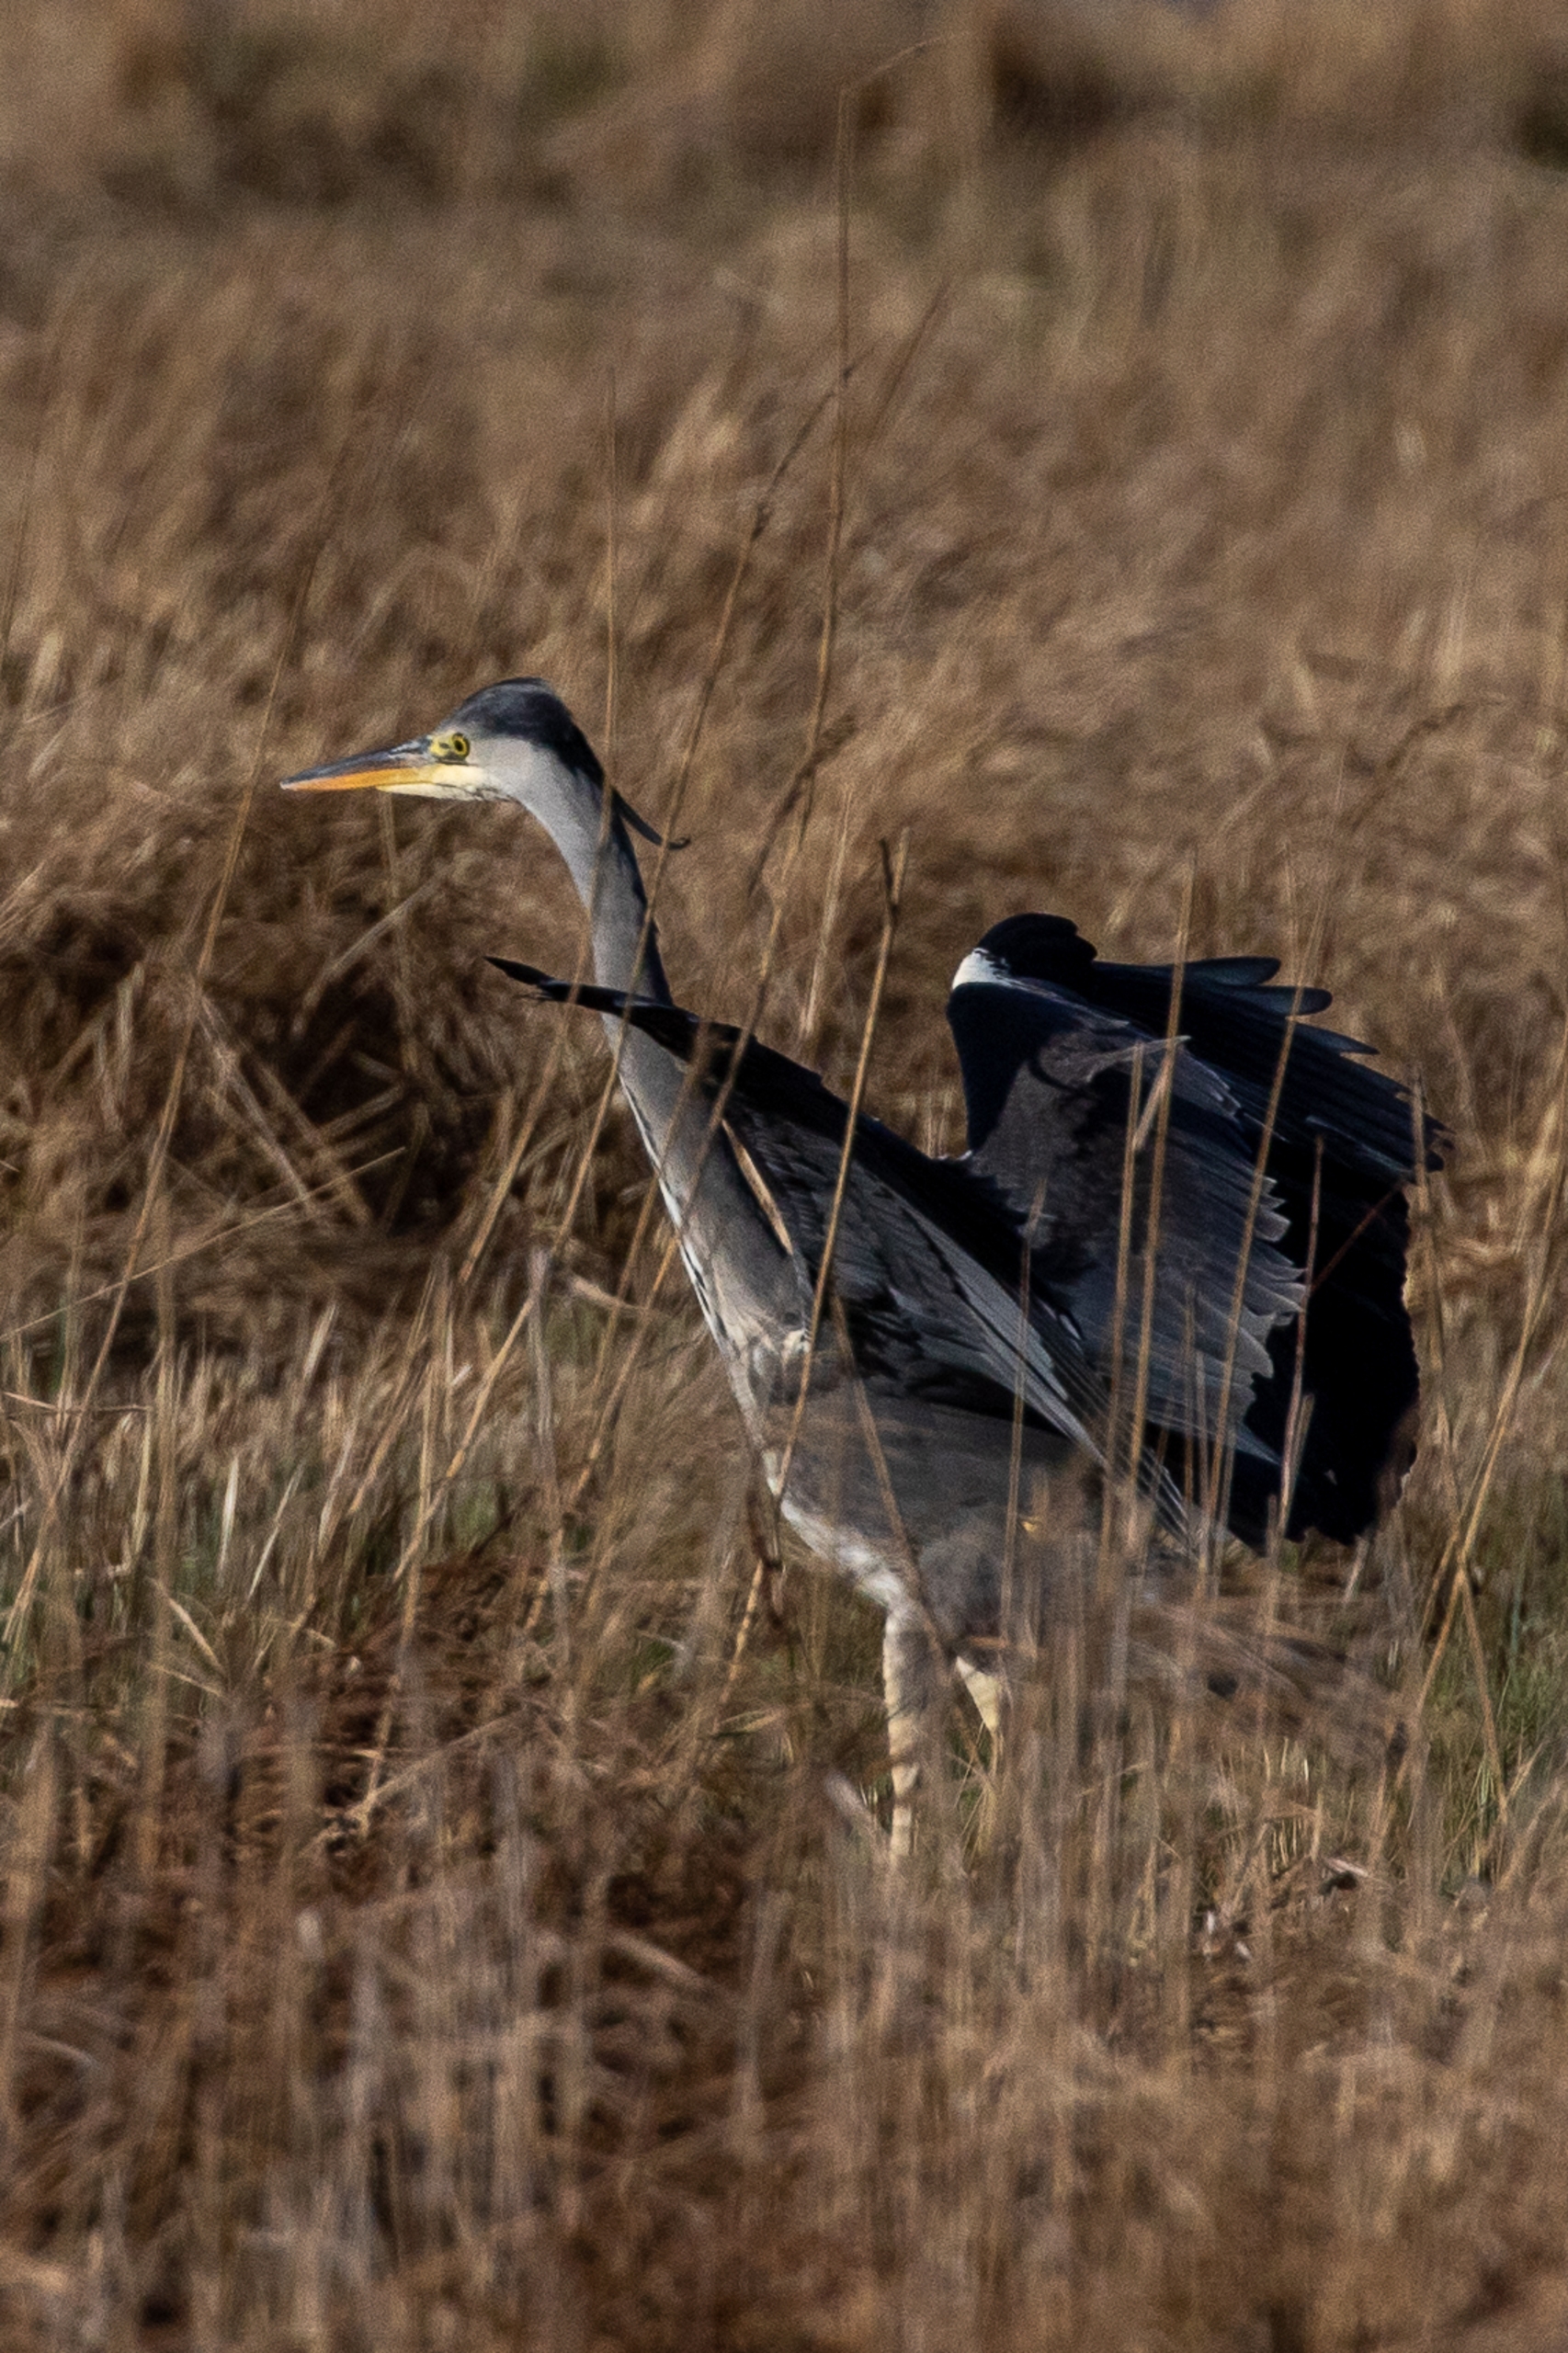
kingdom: Animalia
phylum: Chordata
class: Aves
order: Pelecaniformes
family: Ardeidae
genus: Ardea
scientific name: Ardea cinerea
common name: Fiskehejre
